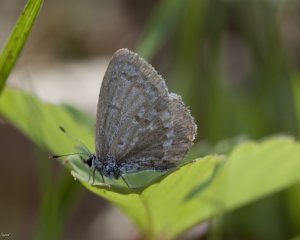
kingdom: Animalia
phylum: Arthropoda
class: Insecta
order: Lepidoptera
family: Lycaenidae
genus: Celastrina
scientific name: Celastrina lucia
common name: Northern Spring Azure
